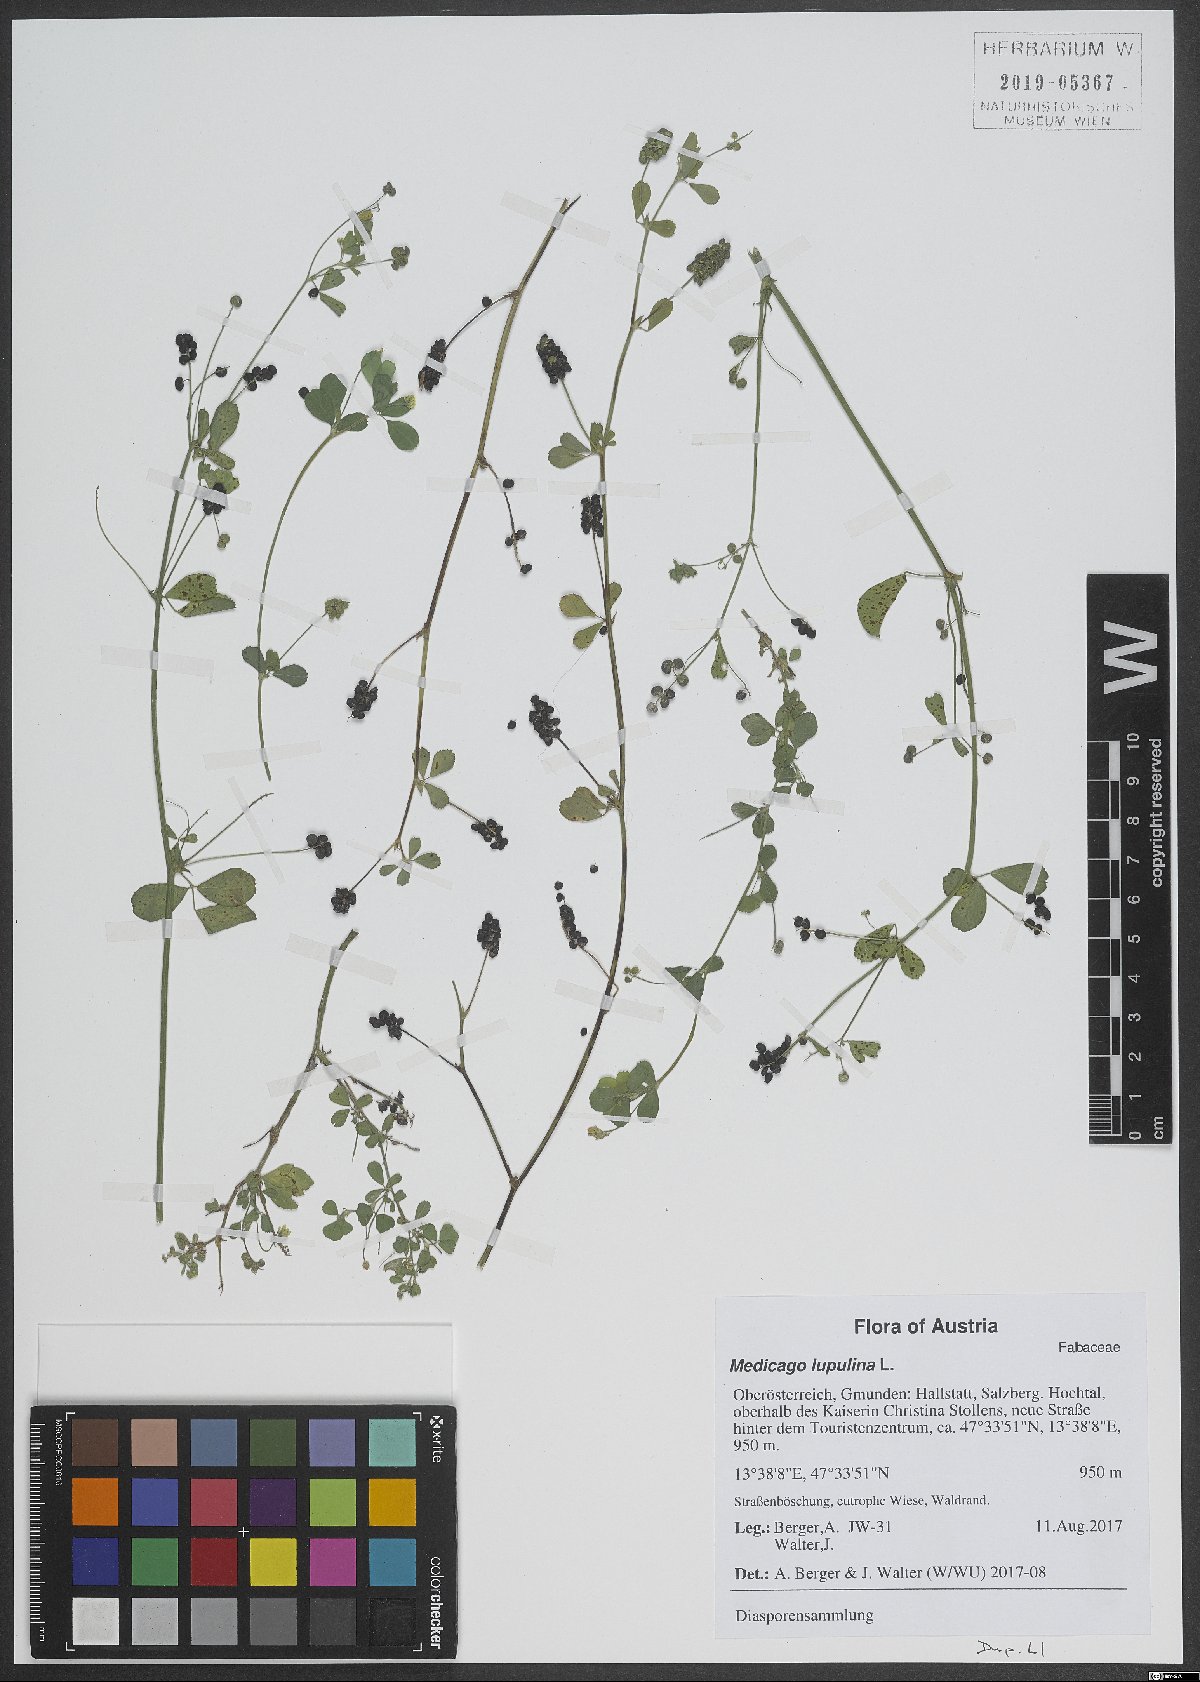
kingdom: Plantae
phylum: Tracheophyta
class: Magnoliopsida
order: Fabales
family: Fabaceae
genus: Medicago
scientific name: Medicago lupulina
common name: Black medick
